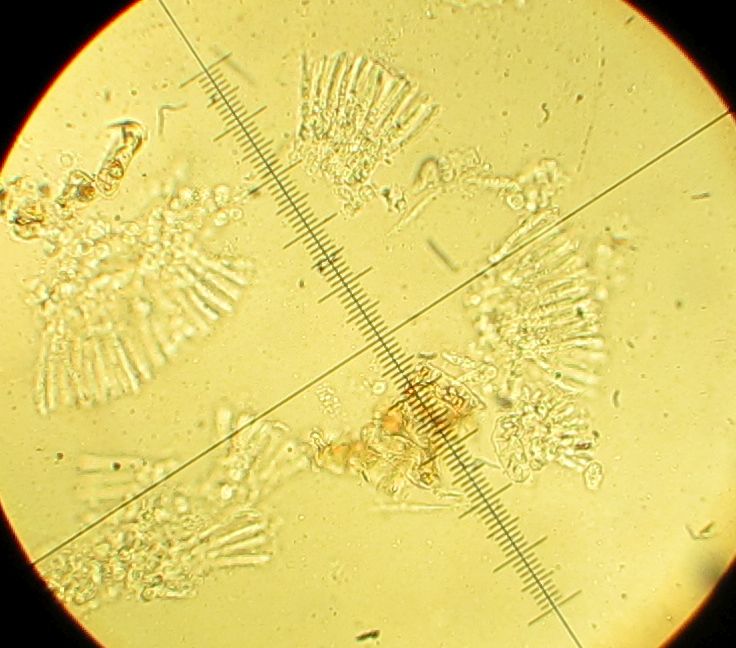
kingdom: Fungi
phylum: Ascomycota
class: Leotiomycetes
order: Rhytismatales
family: Rhytismataceae
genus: Lophodermium
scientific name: Lophodermium foliicola
